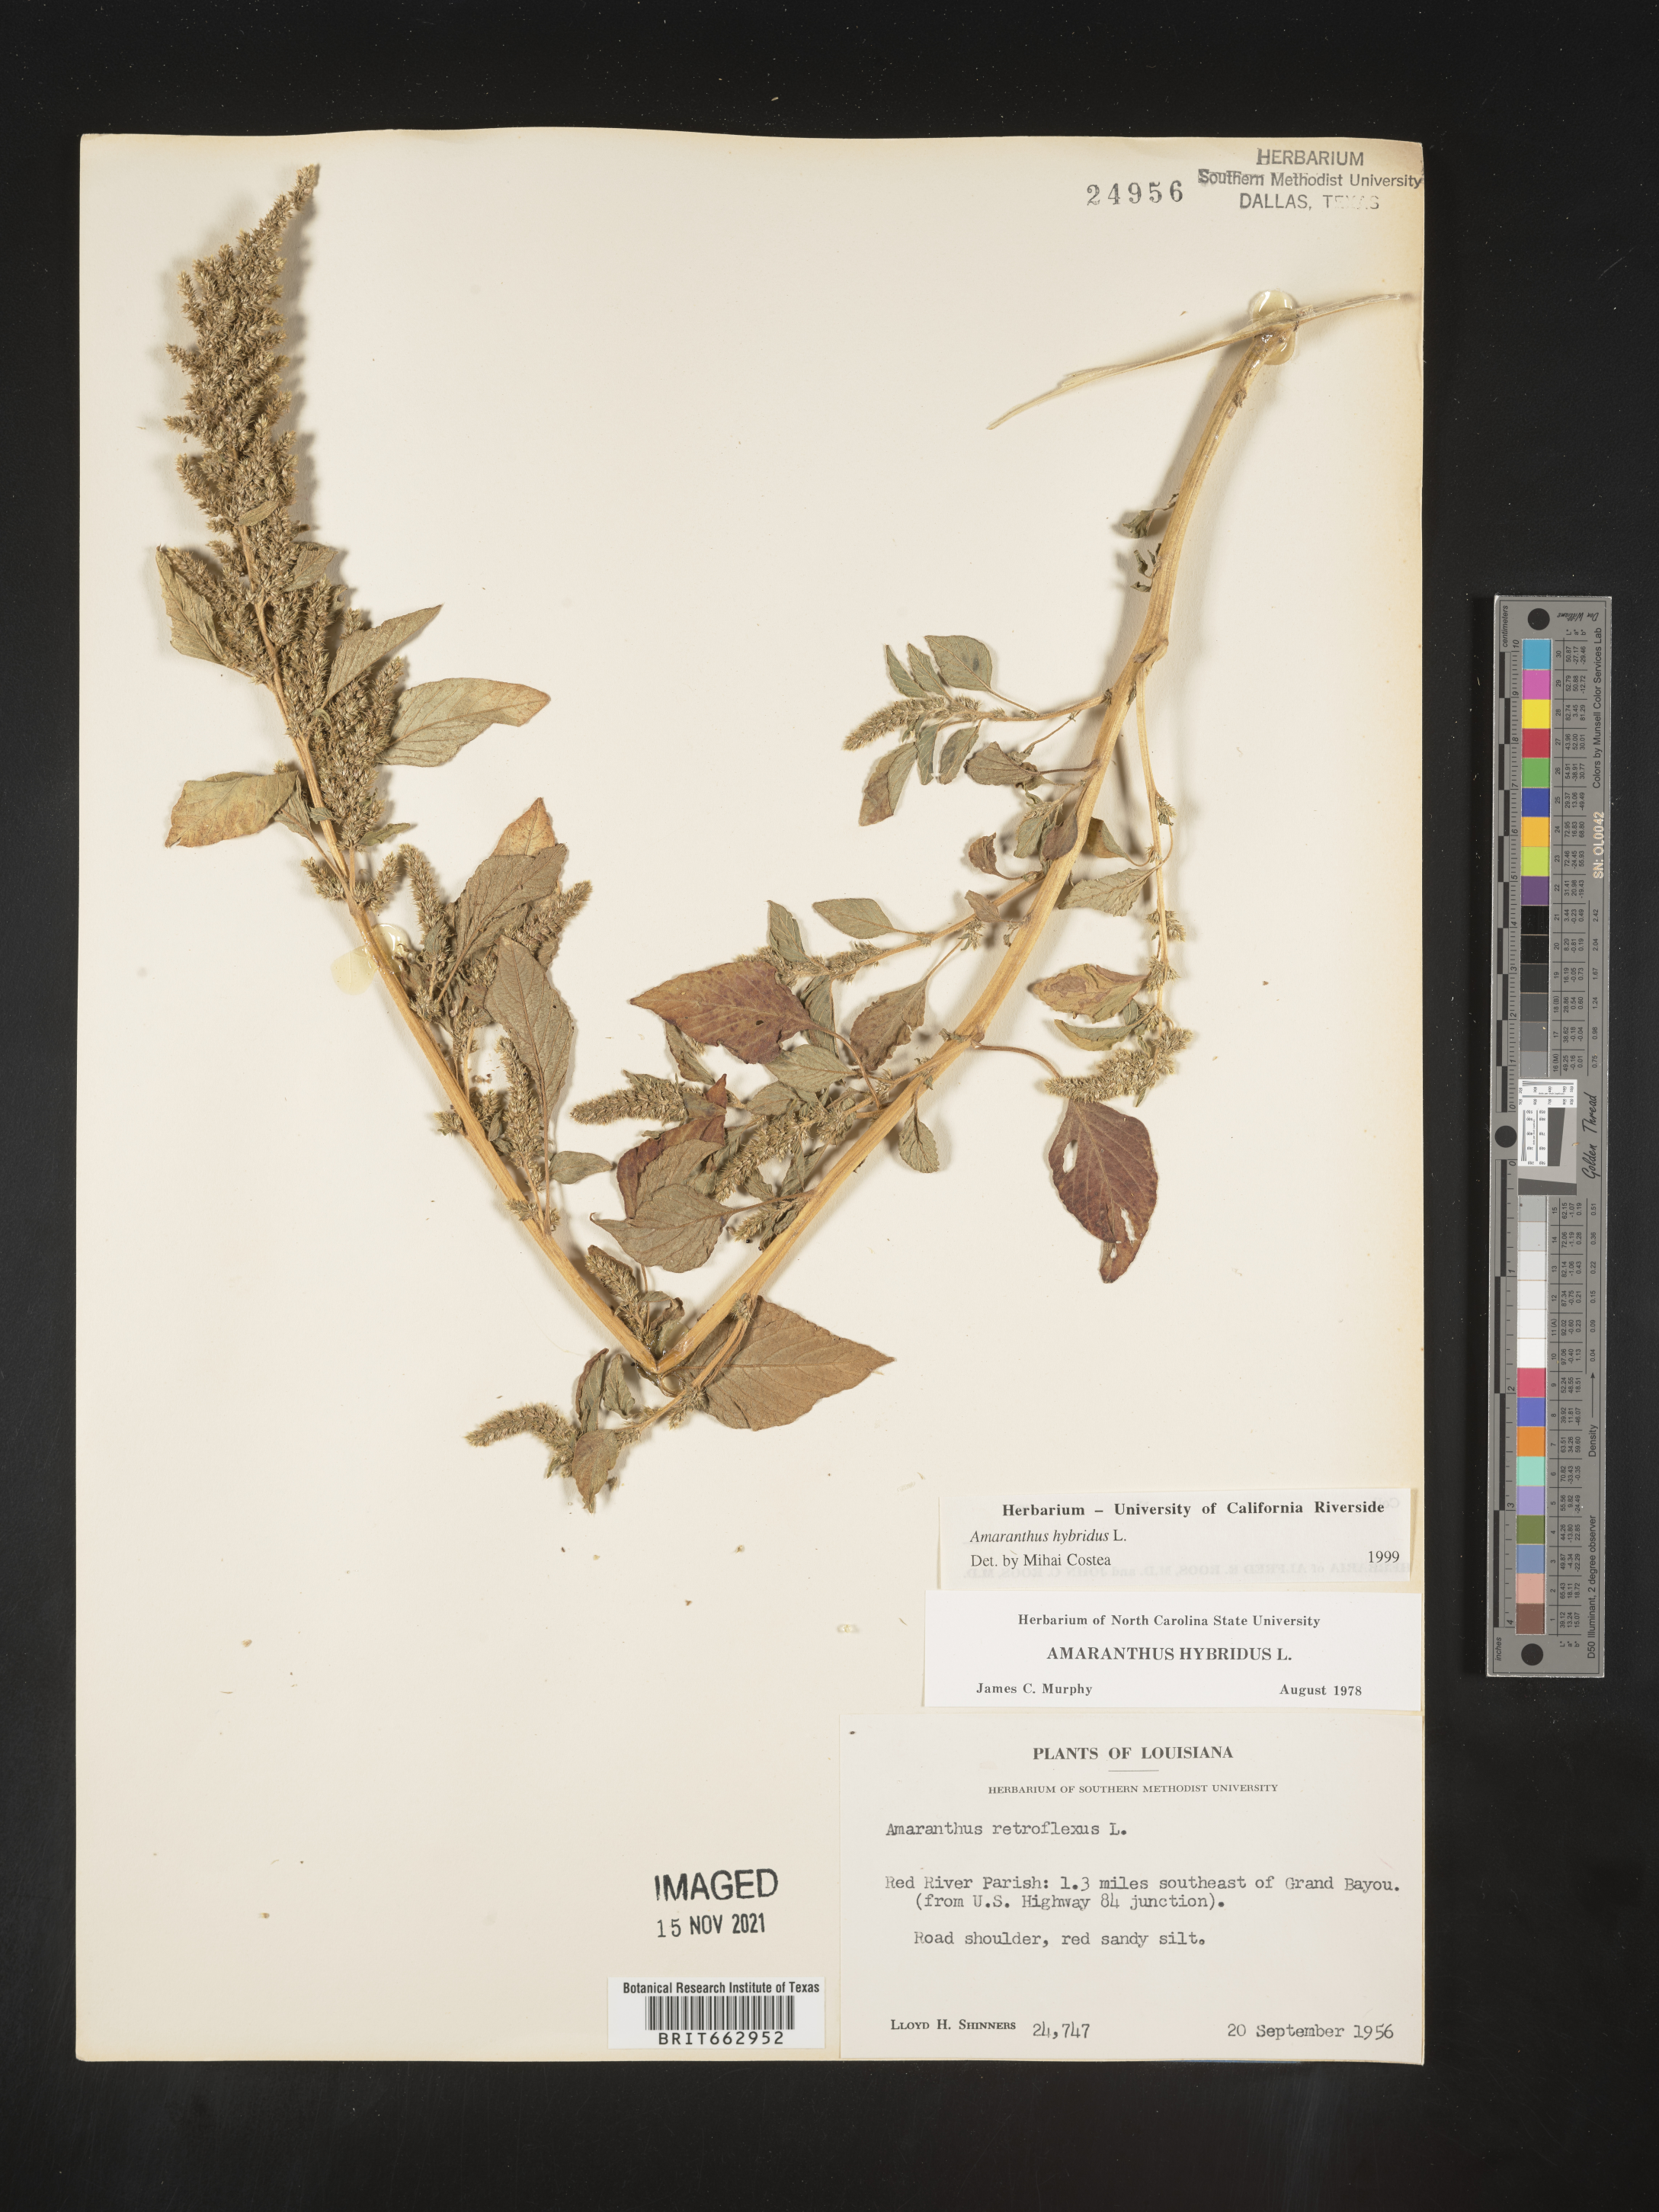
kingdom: Plantae
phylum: Tracheophyta
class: Magnoliopsida
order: Caryophyllales
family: Amaranthaceae
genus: Amaranthus
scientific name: Amaranthus hybridus
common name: Green amaranth
